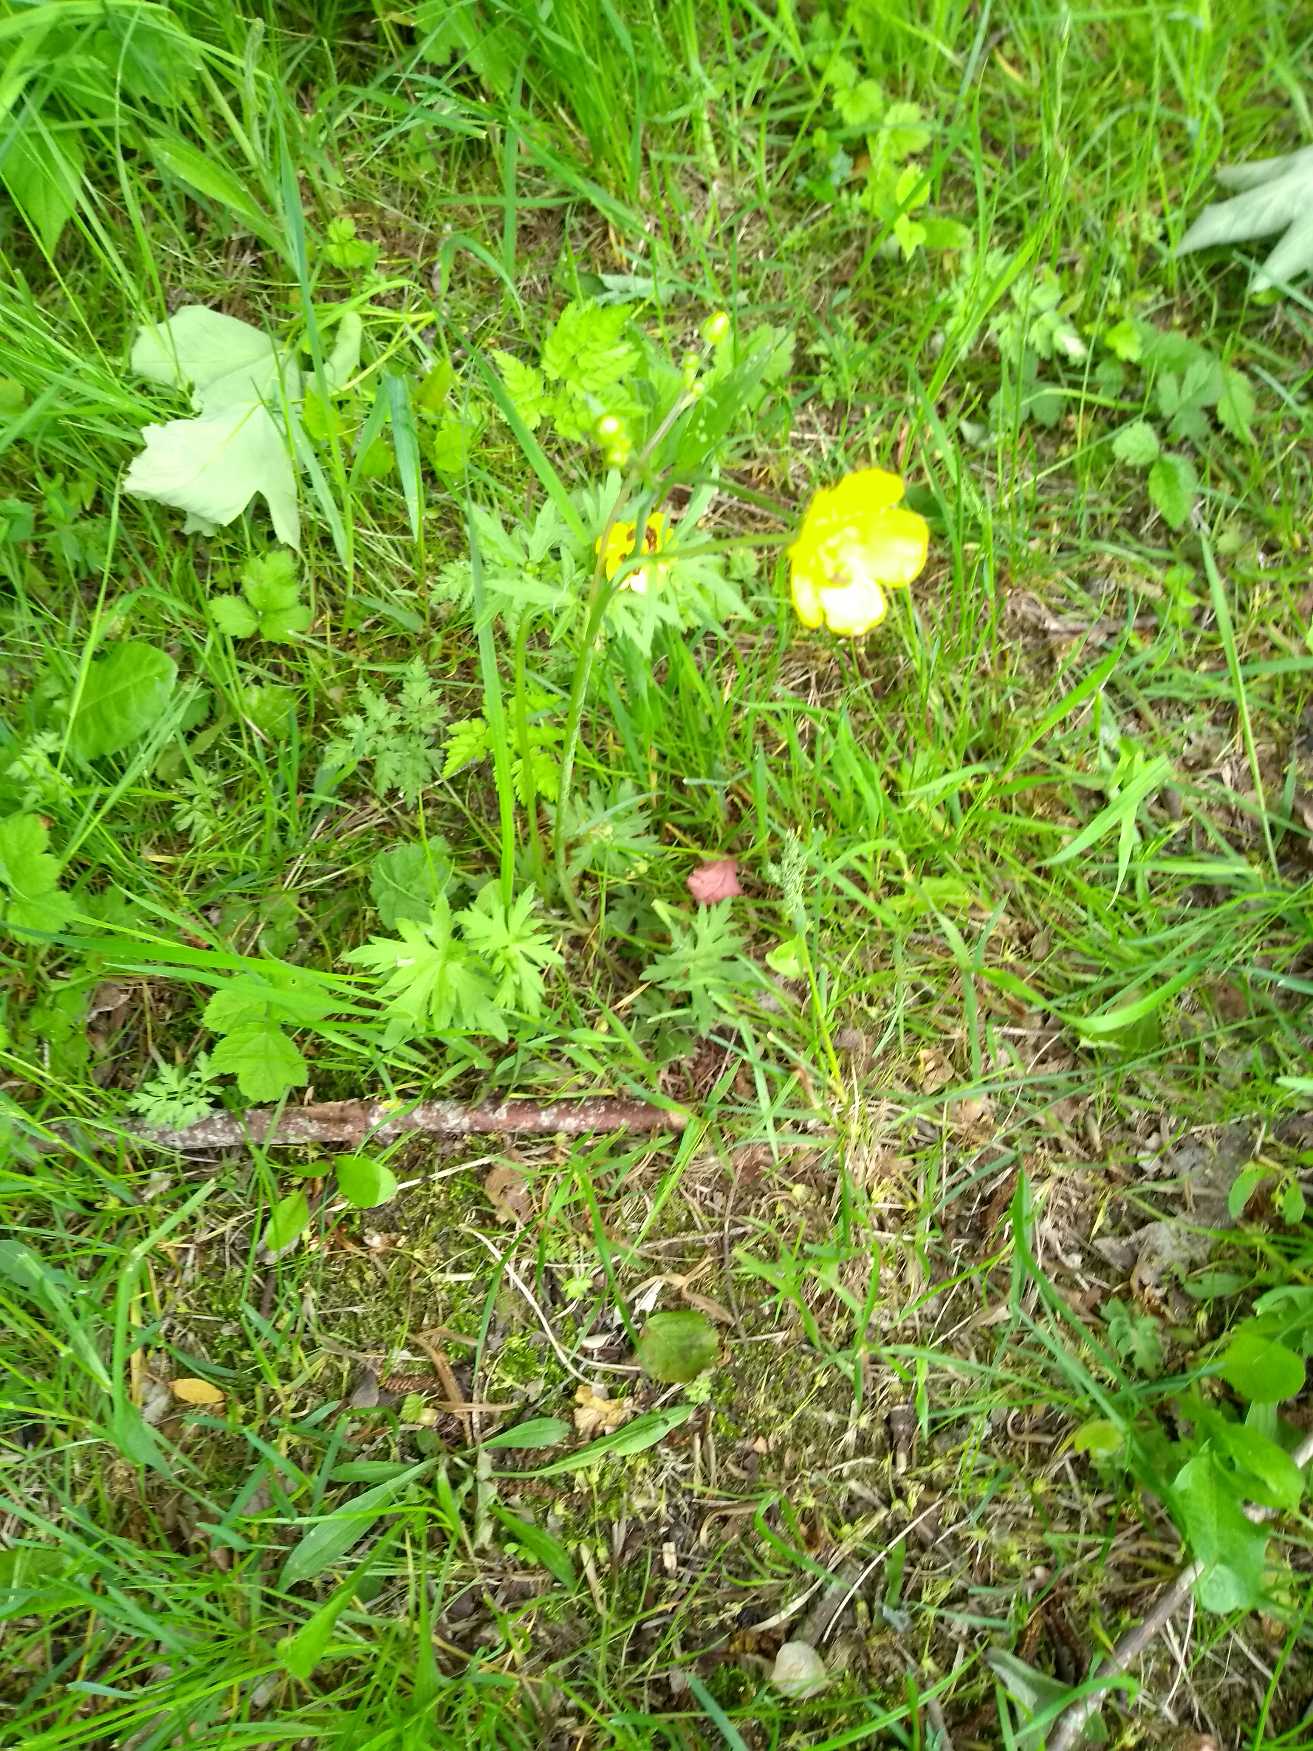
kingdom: Plantae
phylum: Tracheophyta
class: Magnoliopsida
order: Ranunculales
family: Ranunculaceae
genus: Ranunculus
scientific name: Ranunculus acris
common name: Bidende ranunkel
